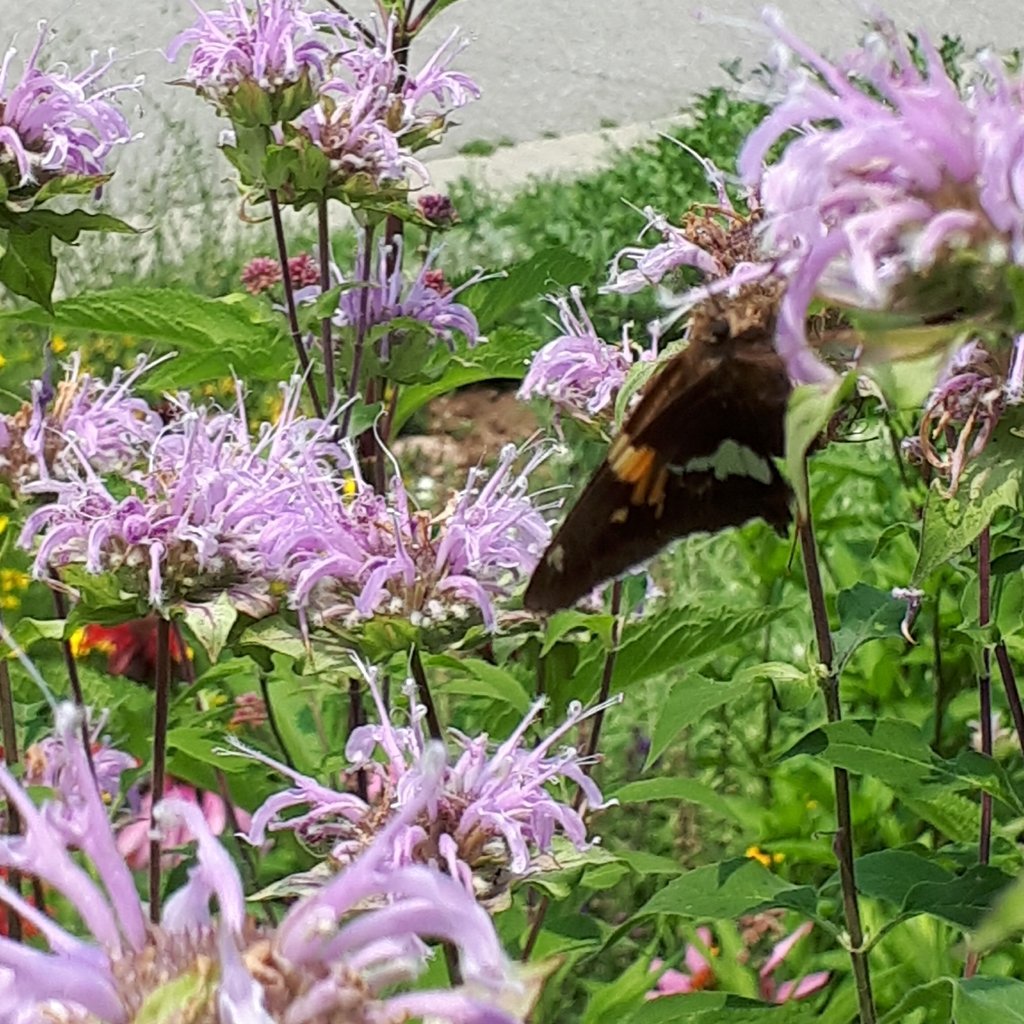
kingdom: Animalia
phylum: Arthropoda
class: Insecta
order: Lepidoptera
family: Hesperiidae
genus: Epargyreus
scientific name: Epargyreus clarus
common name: Silver-spotted Skipper
